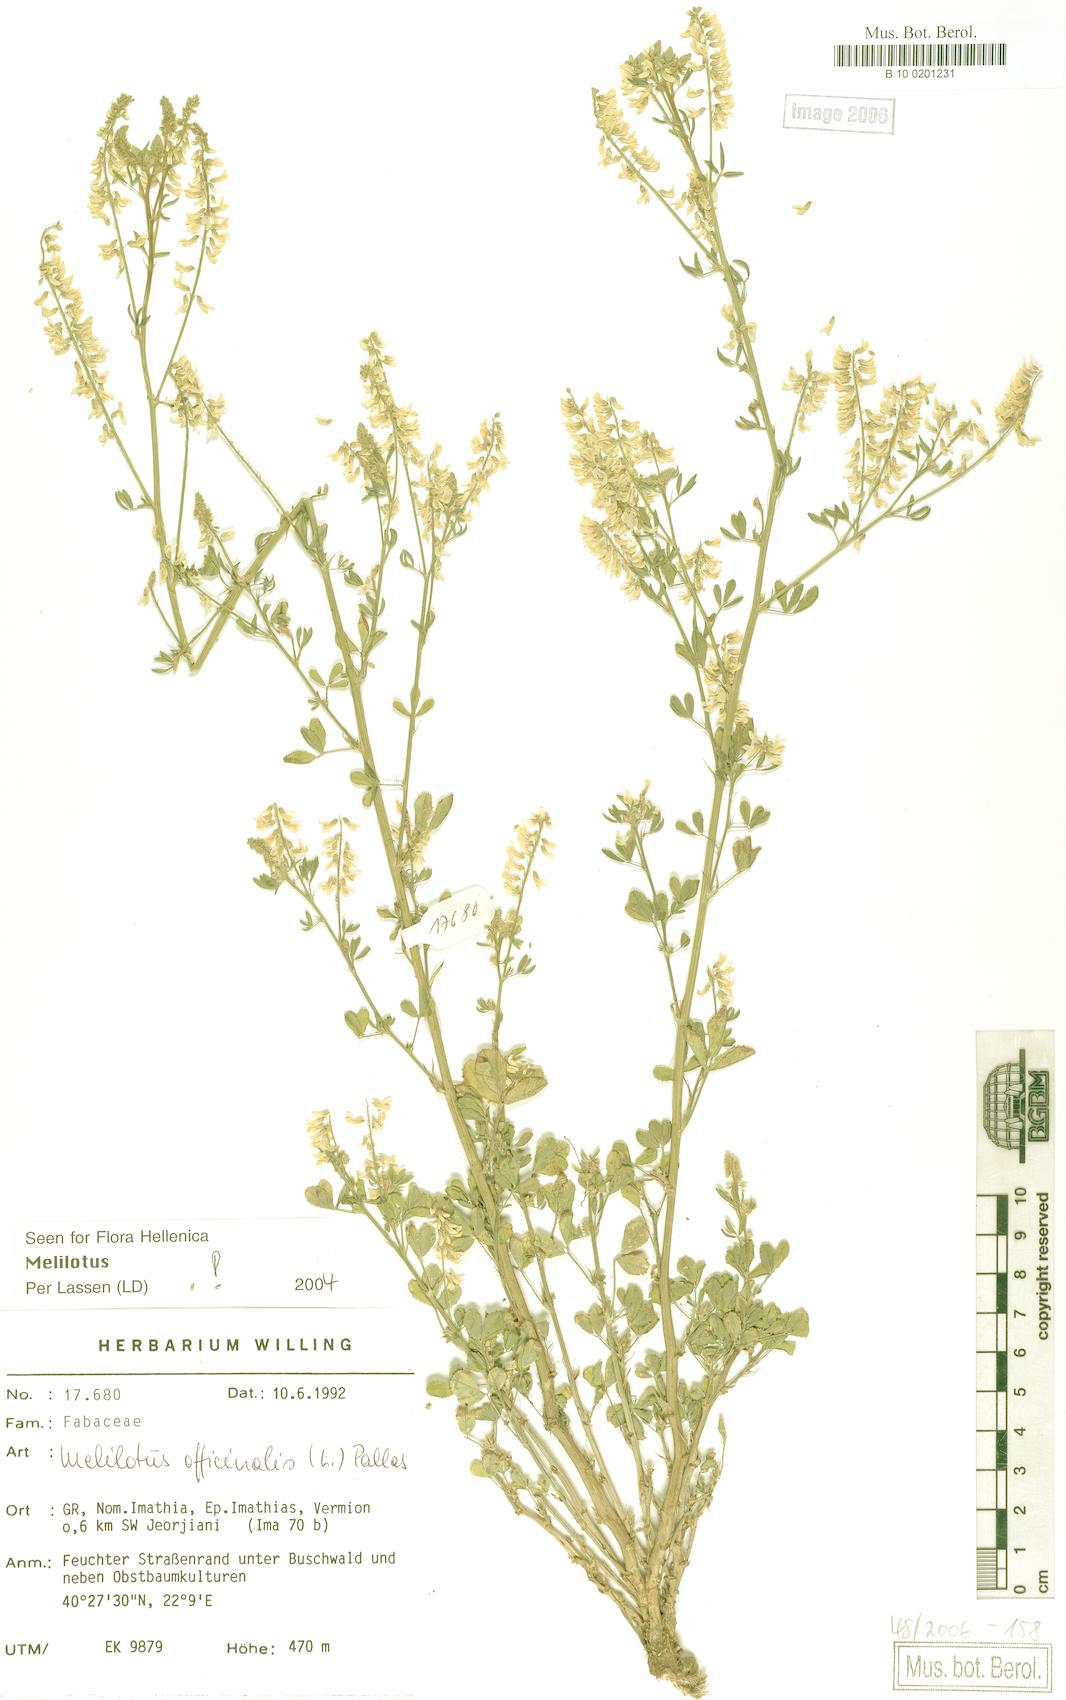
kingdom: Plantae
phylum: Tracheophyta
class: Magnoliopsida
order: Fabales
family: Fabaceae
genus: Melilotus
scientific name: Melilotus officinalis
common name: Sweetclover
